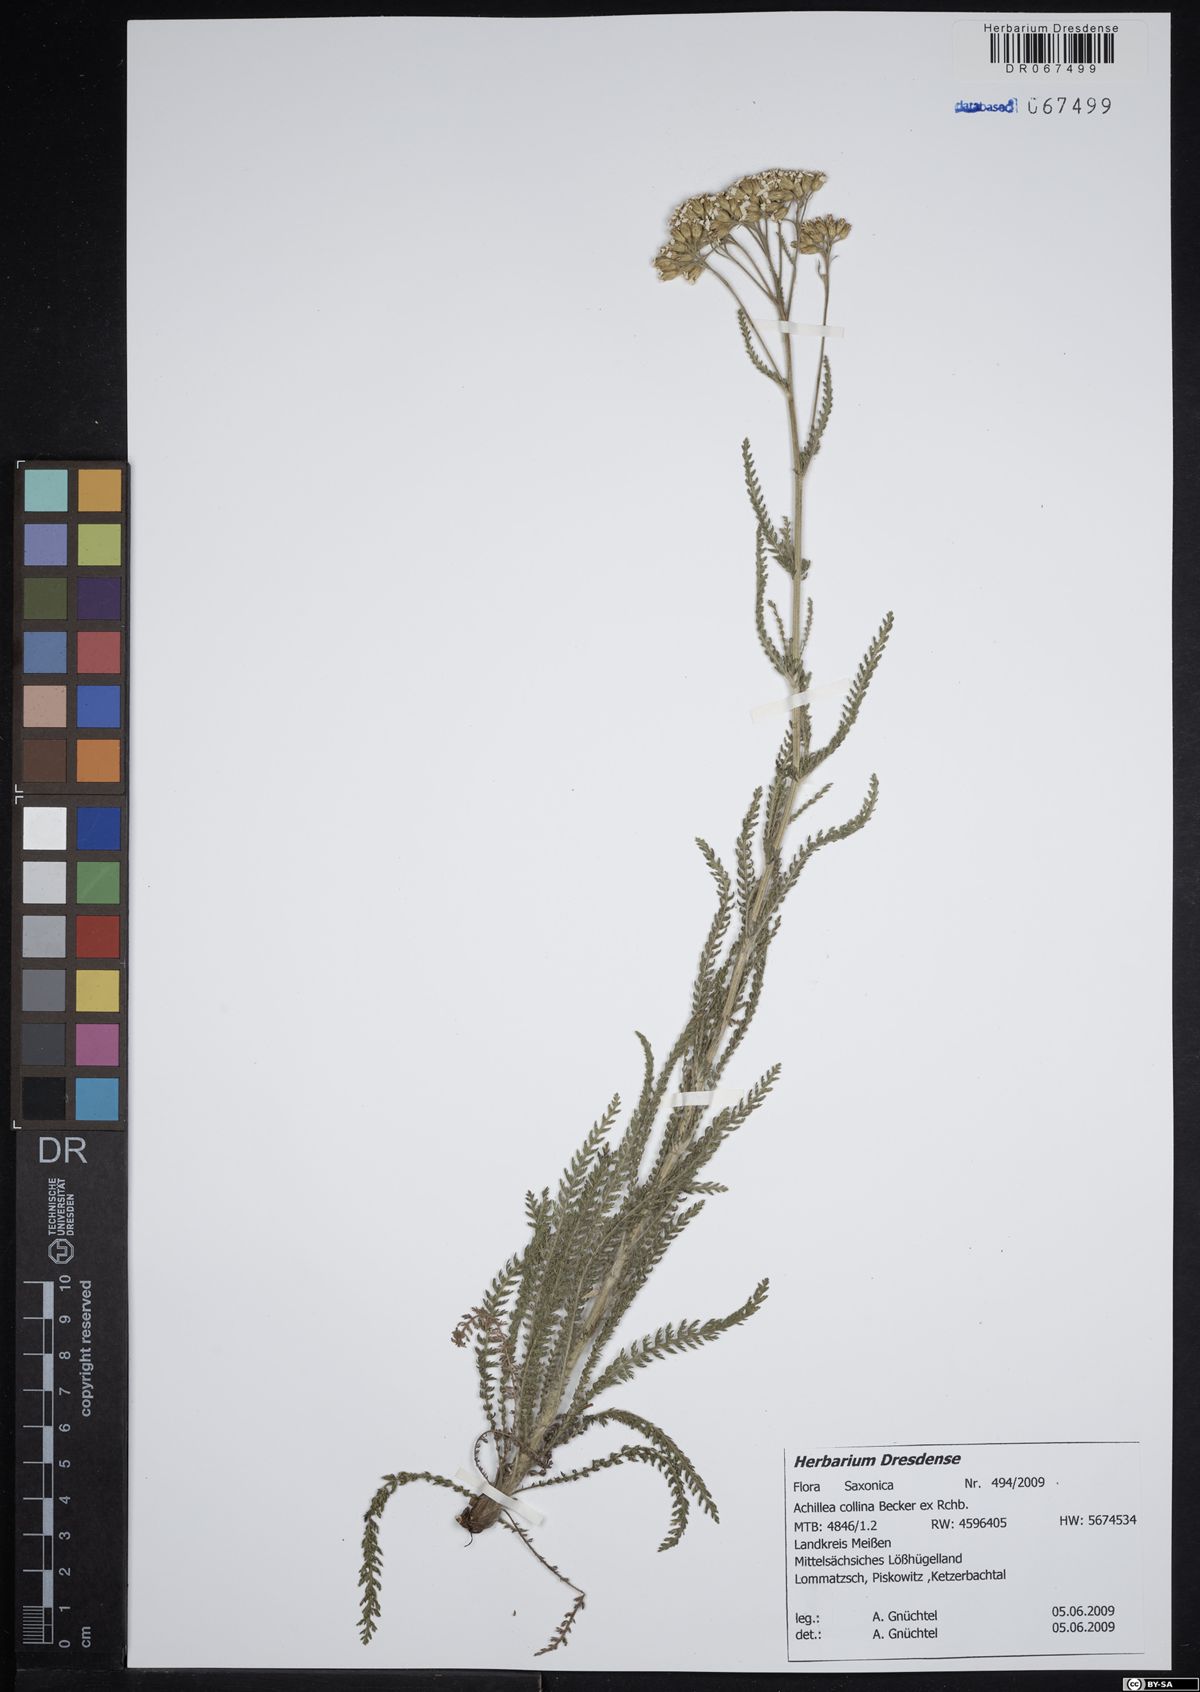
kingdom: Plantae
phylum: Tracheophyta
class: Magnoliopsida
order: Asterales
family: Asteraceae
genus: Achillea
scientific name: Achillea collina
